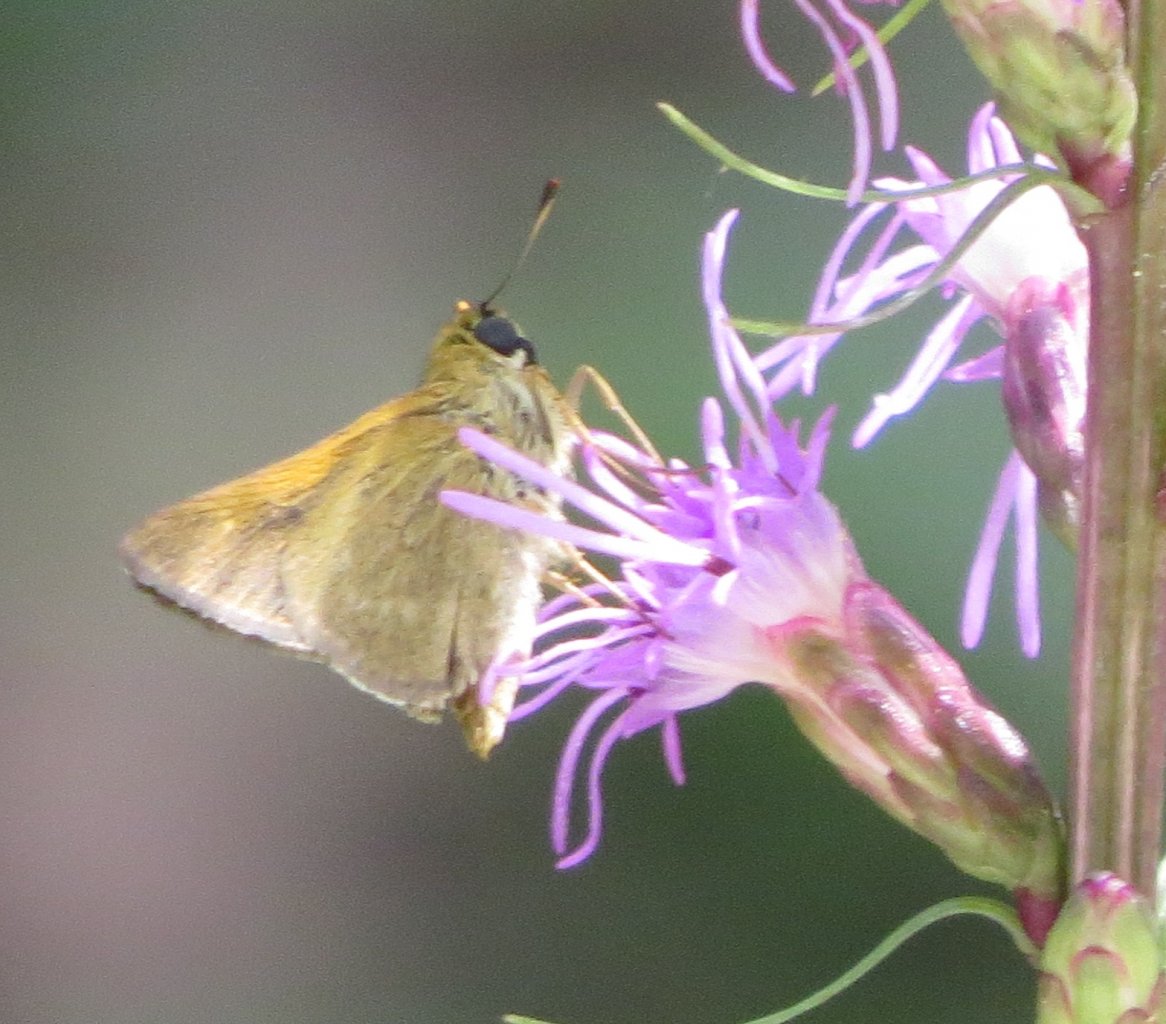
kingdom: Animalia
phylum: Arthropoda
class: Insecta
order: Lepidoptera
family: Hesperiidae
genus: Polites
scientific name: Polites themistocles
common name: Tawny-edged Skipper
